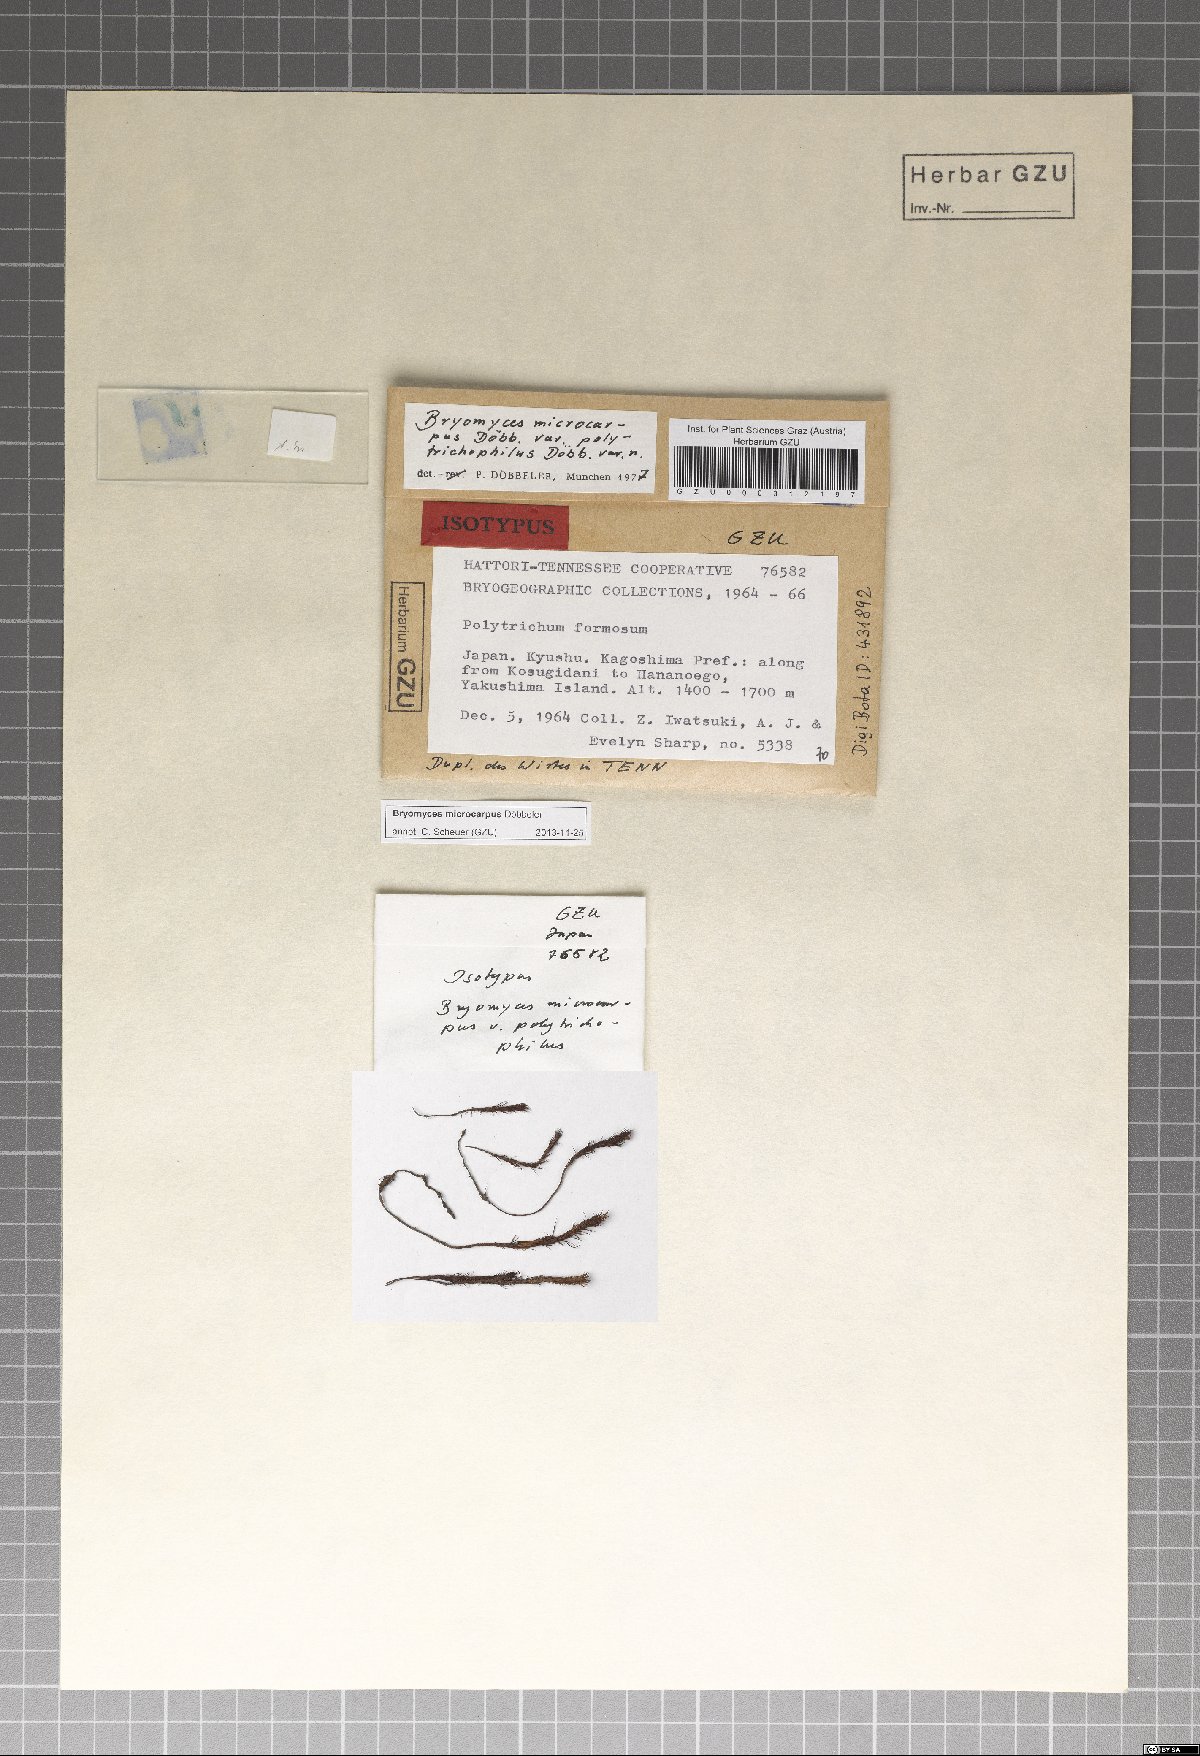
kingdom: Fungi
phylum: Ascomycota
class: Dothideomycetes
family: Pseudoperisporiaceae
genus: Bryomyces
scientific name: Bryomyces microcarpus
